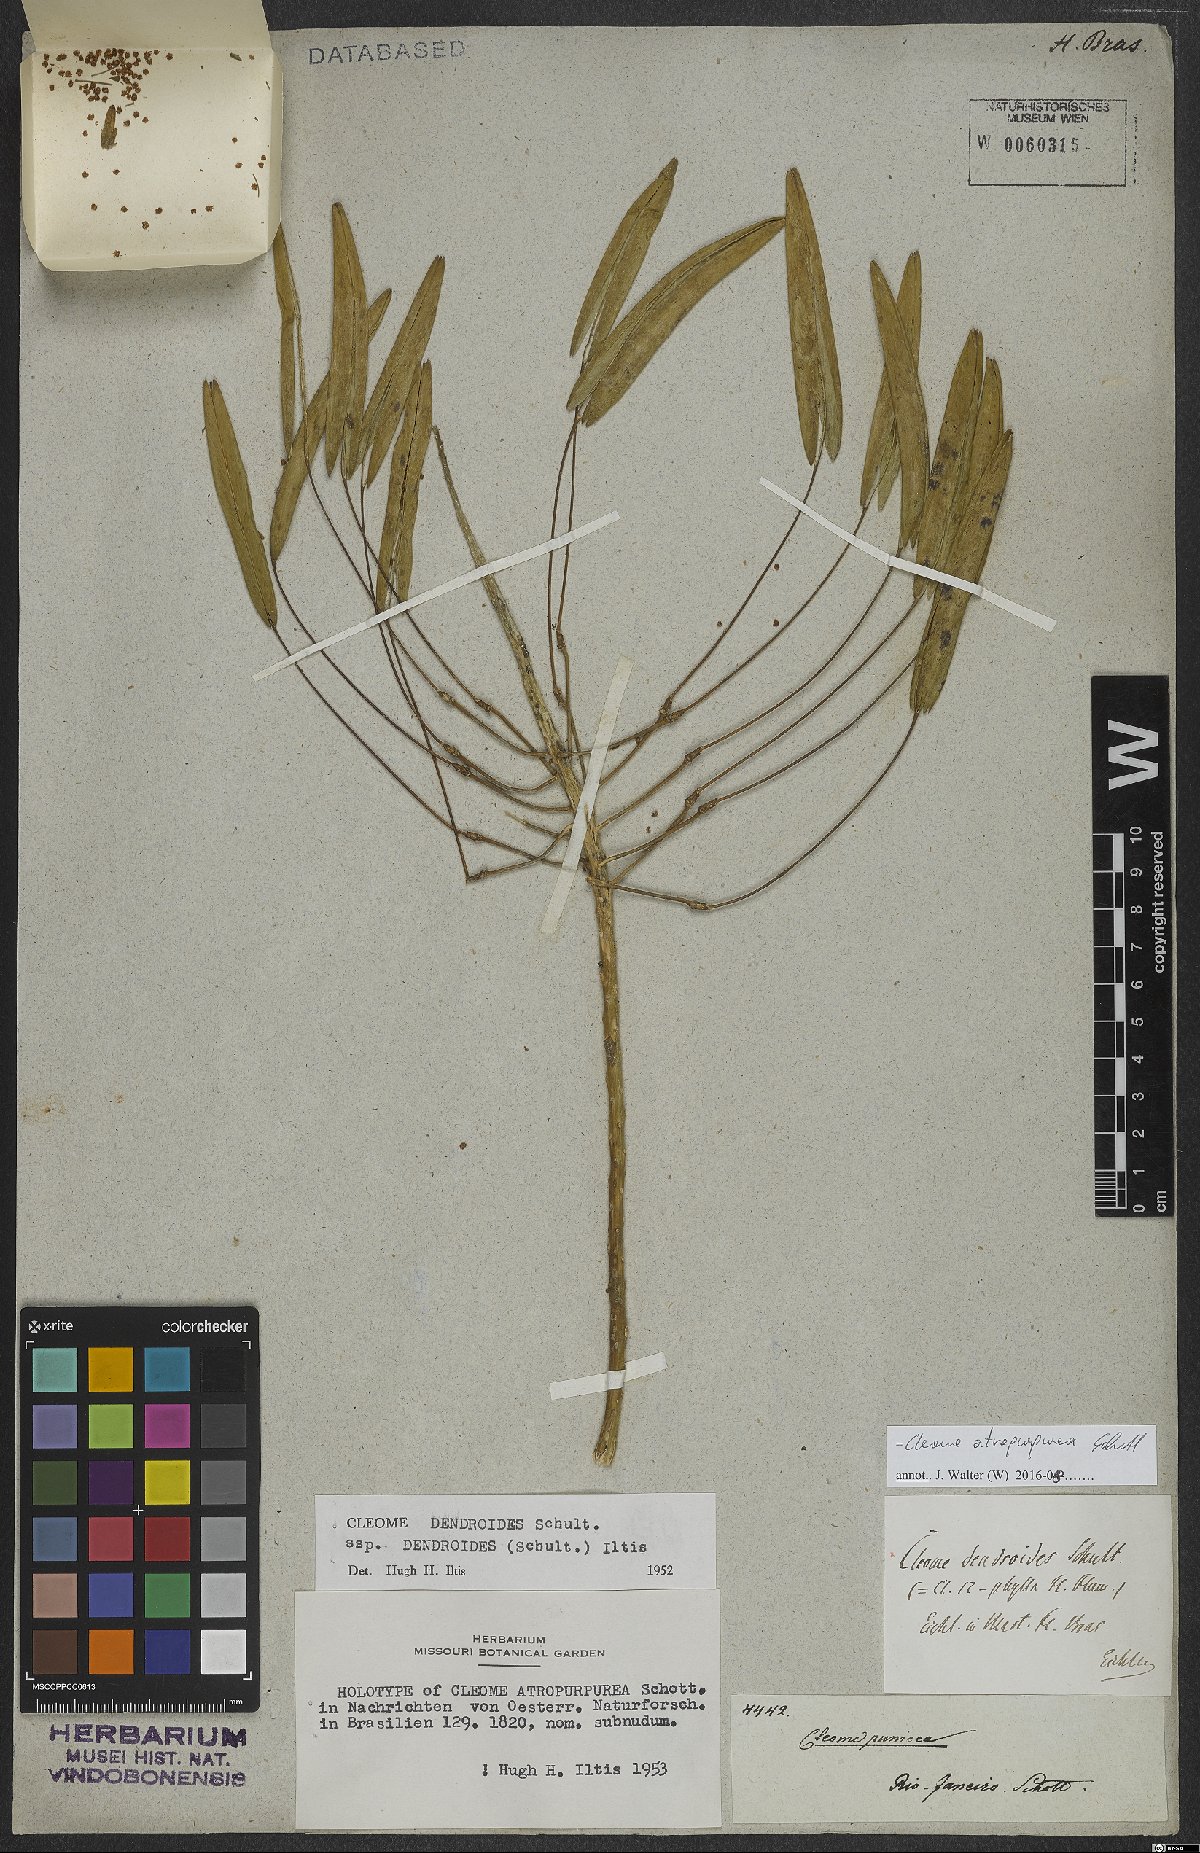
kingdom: Plantae
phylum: Tracheophyta
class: Magnoliopsida
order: Brassicales
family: Cleomaceae
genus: Tarenaya
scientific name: Tarenaya atropurpurea
